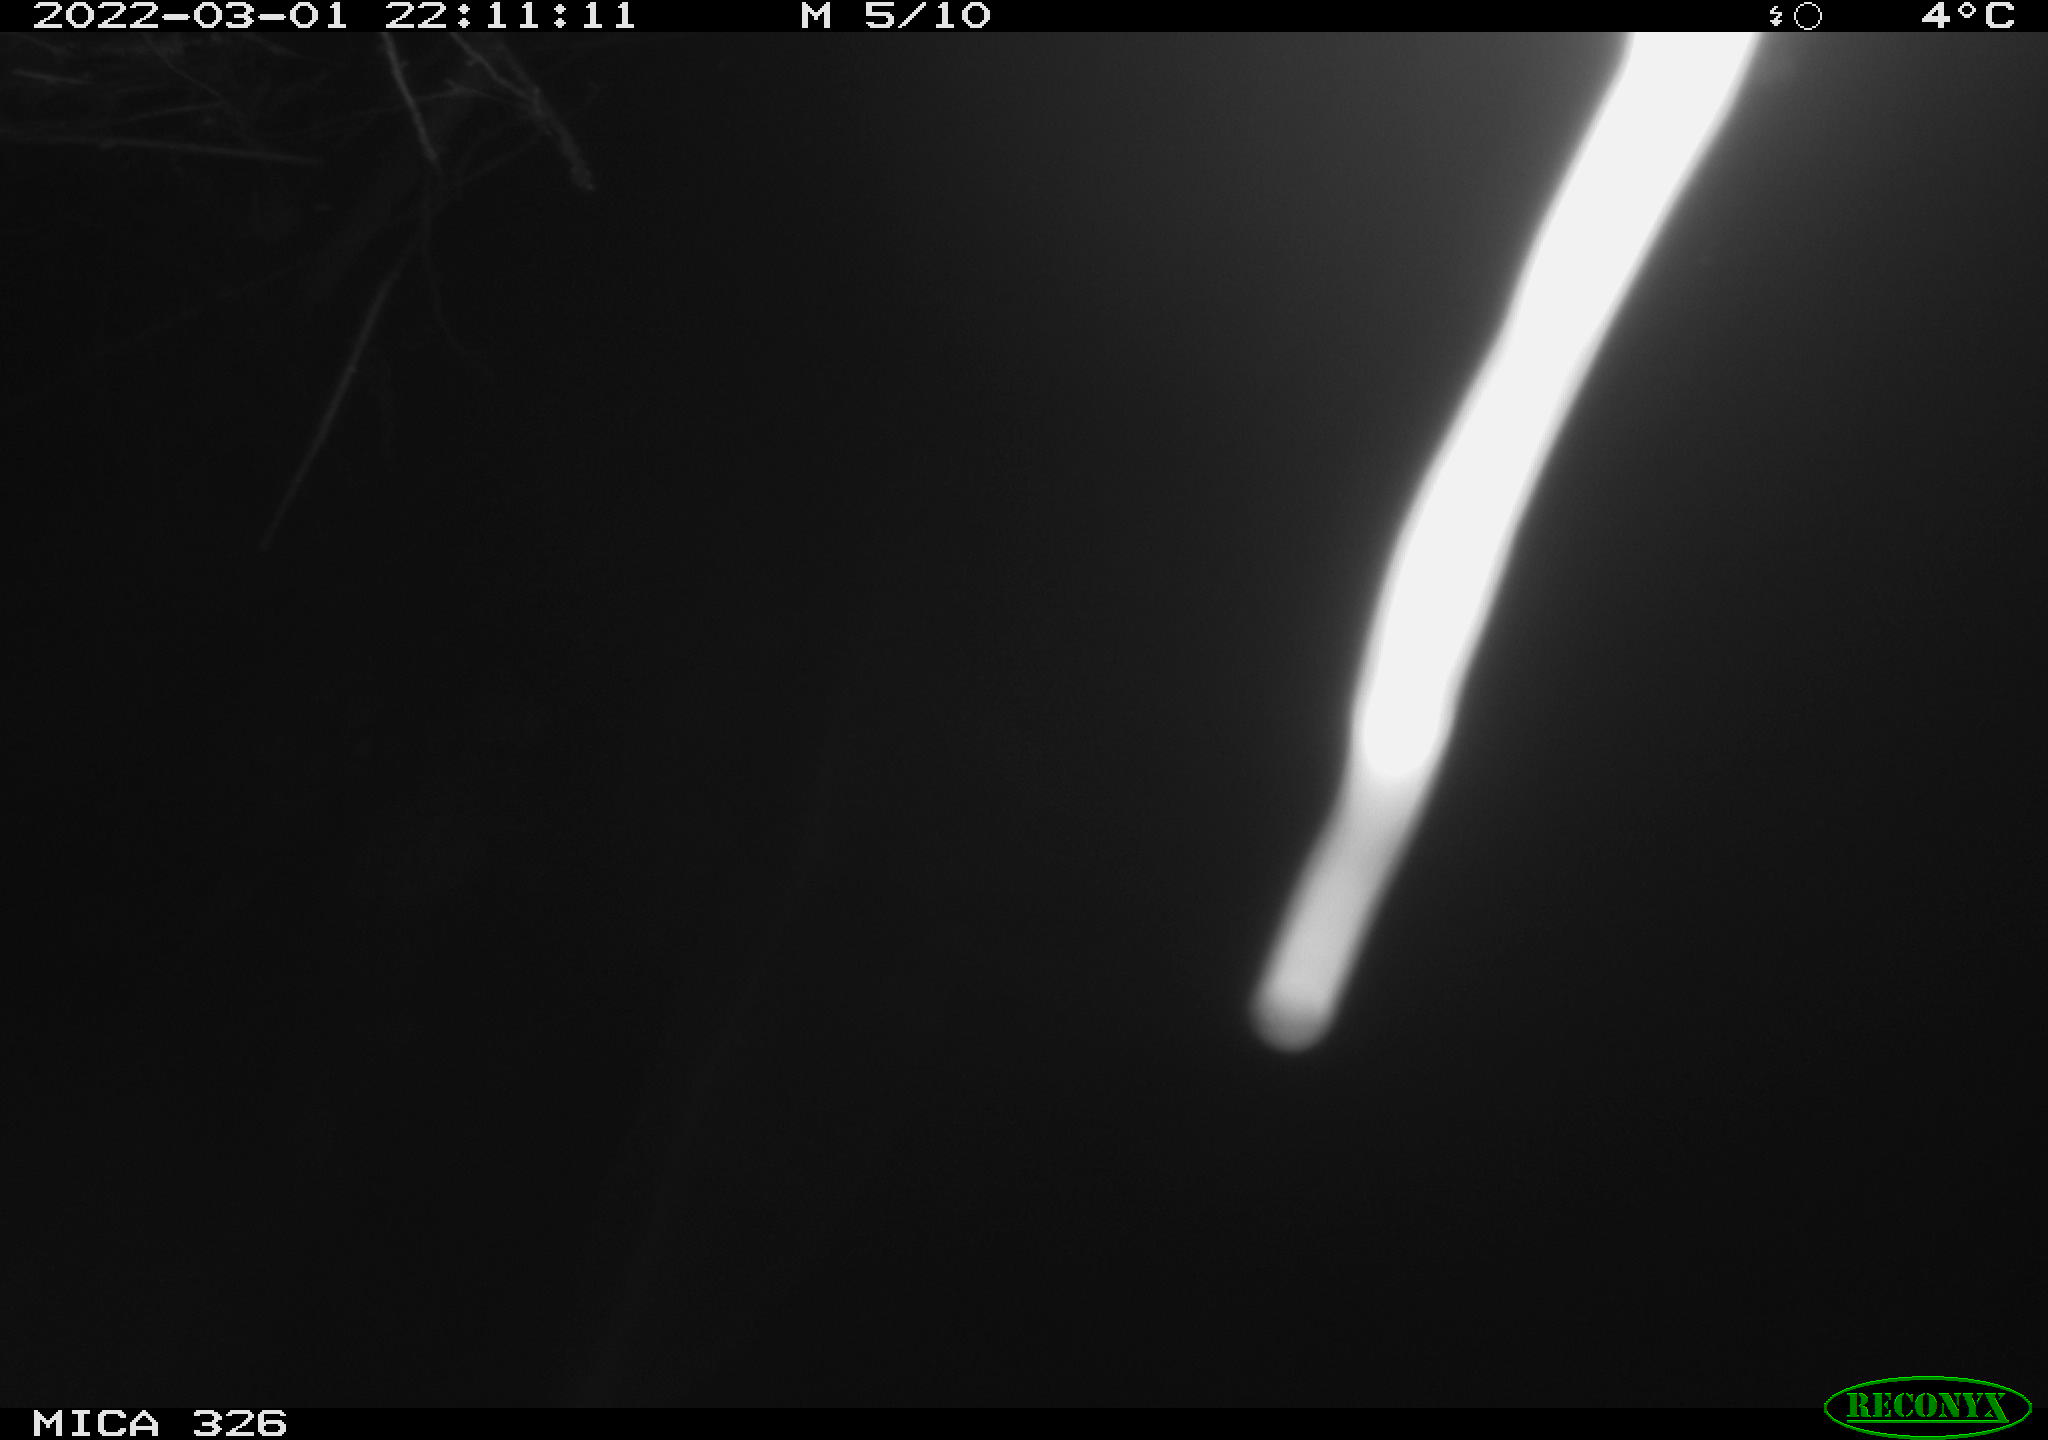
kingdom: Animalia
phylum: Chordata
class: Mammalia
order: Rodentia
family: Cricetidae
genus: Ondatra
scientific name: Ondatra zibethicus
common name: Muskrat
